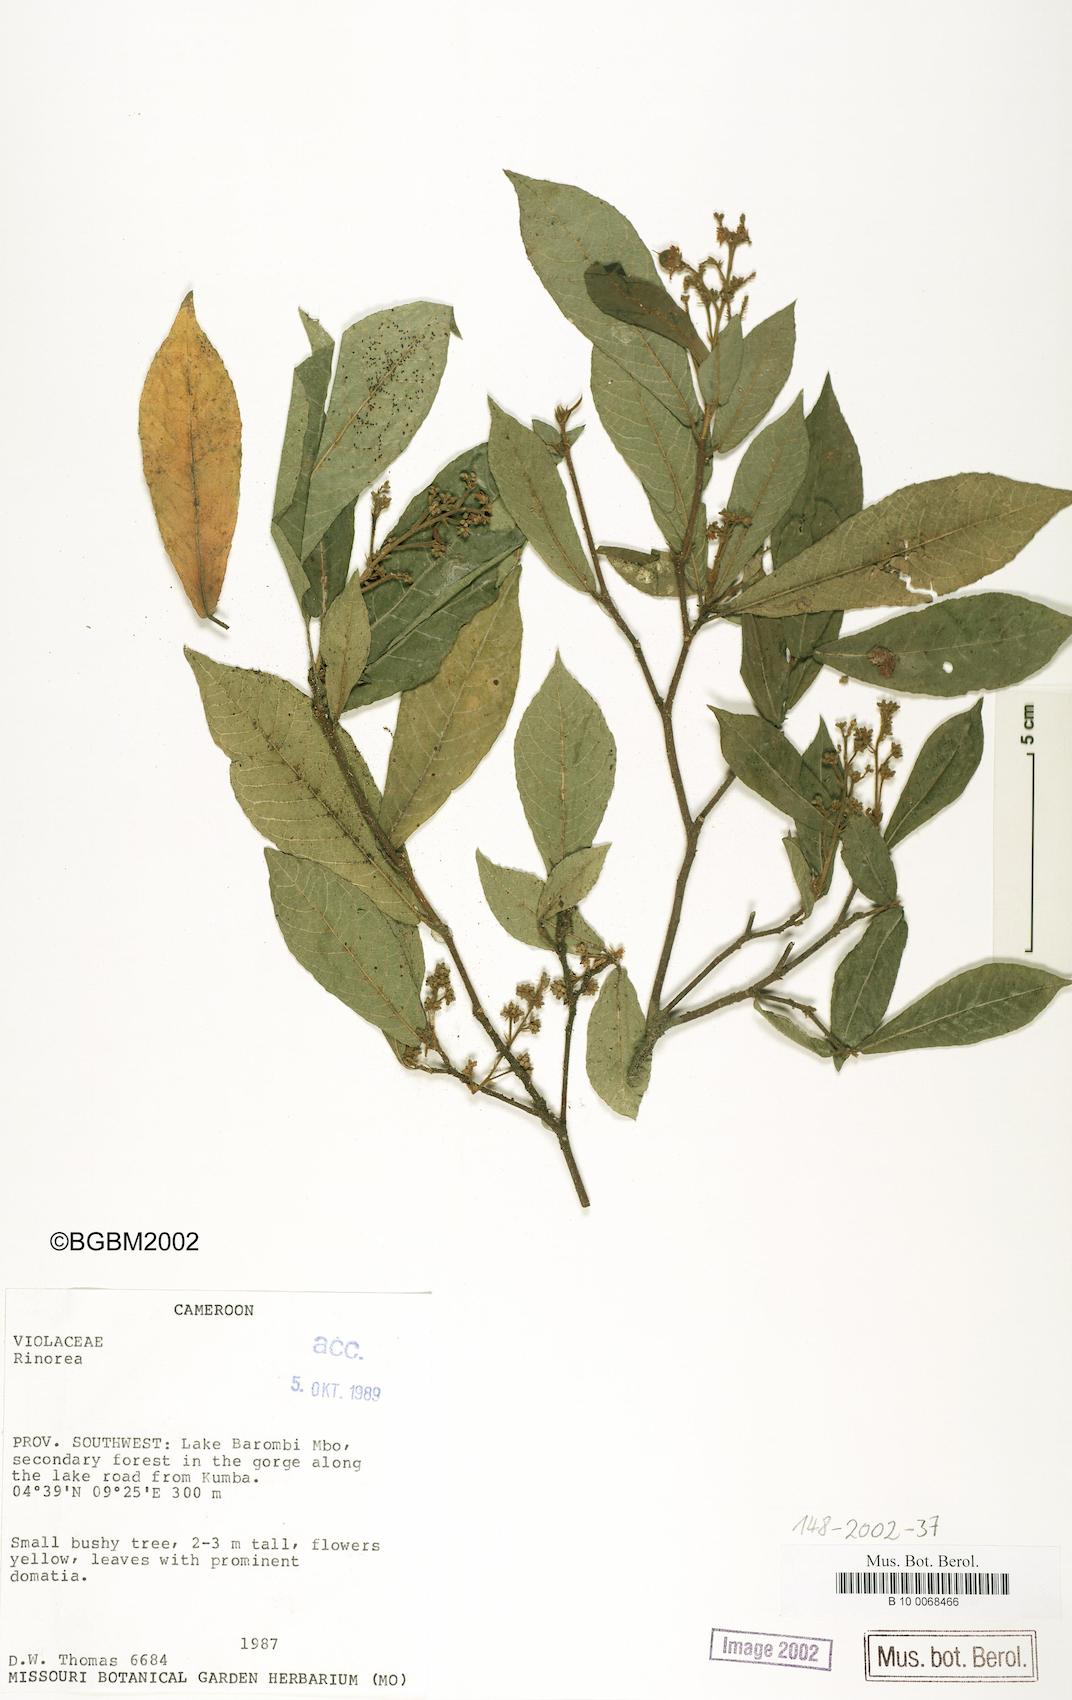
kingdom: Plantae
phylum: Tracheophyta
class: Magnoliopsida
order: Malpighiales
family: Violaceae
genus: Rinorea
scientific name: Rinorea
